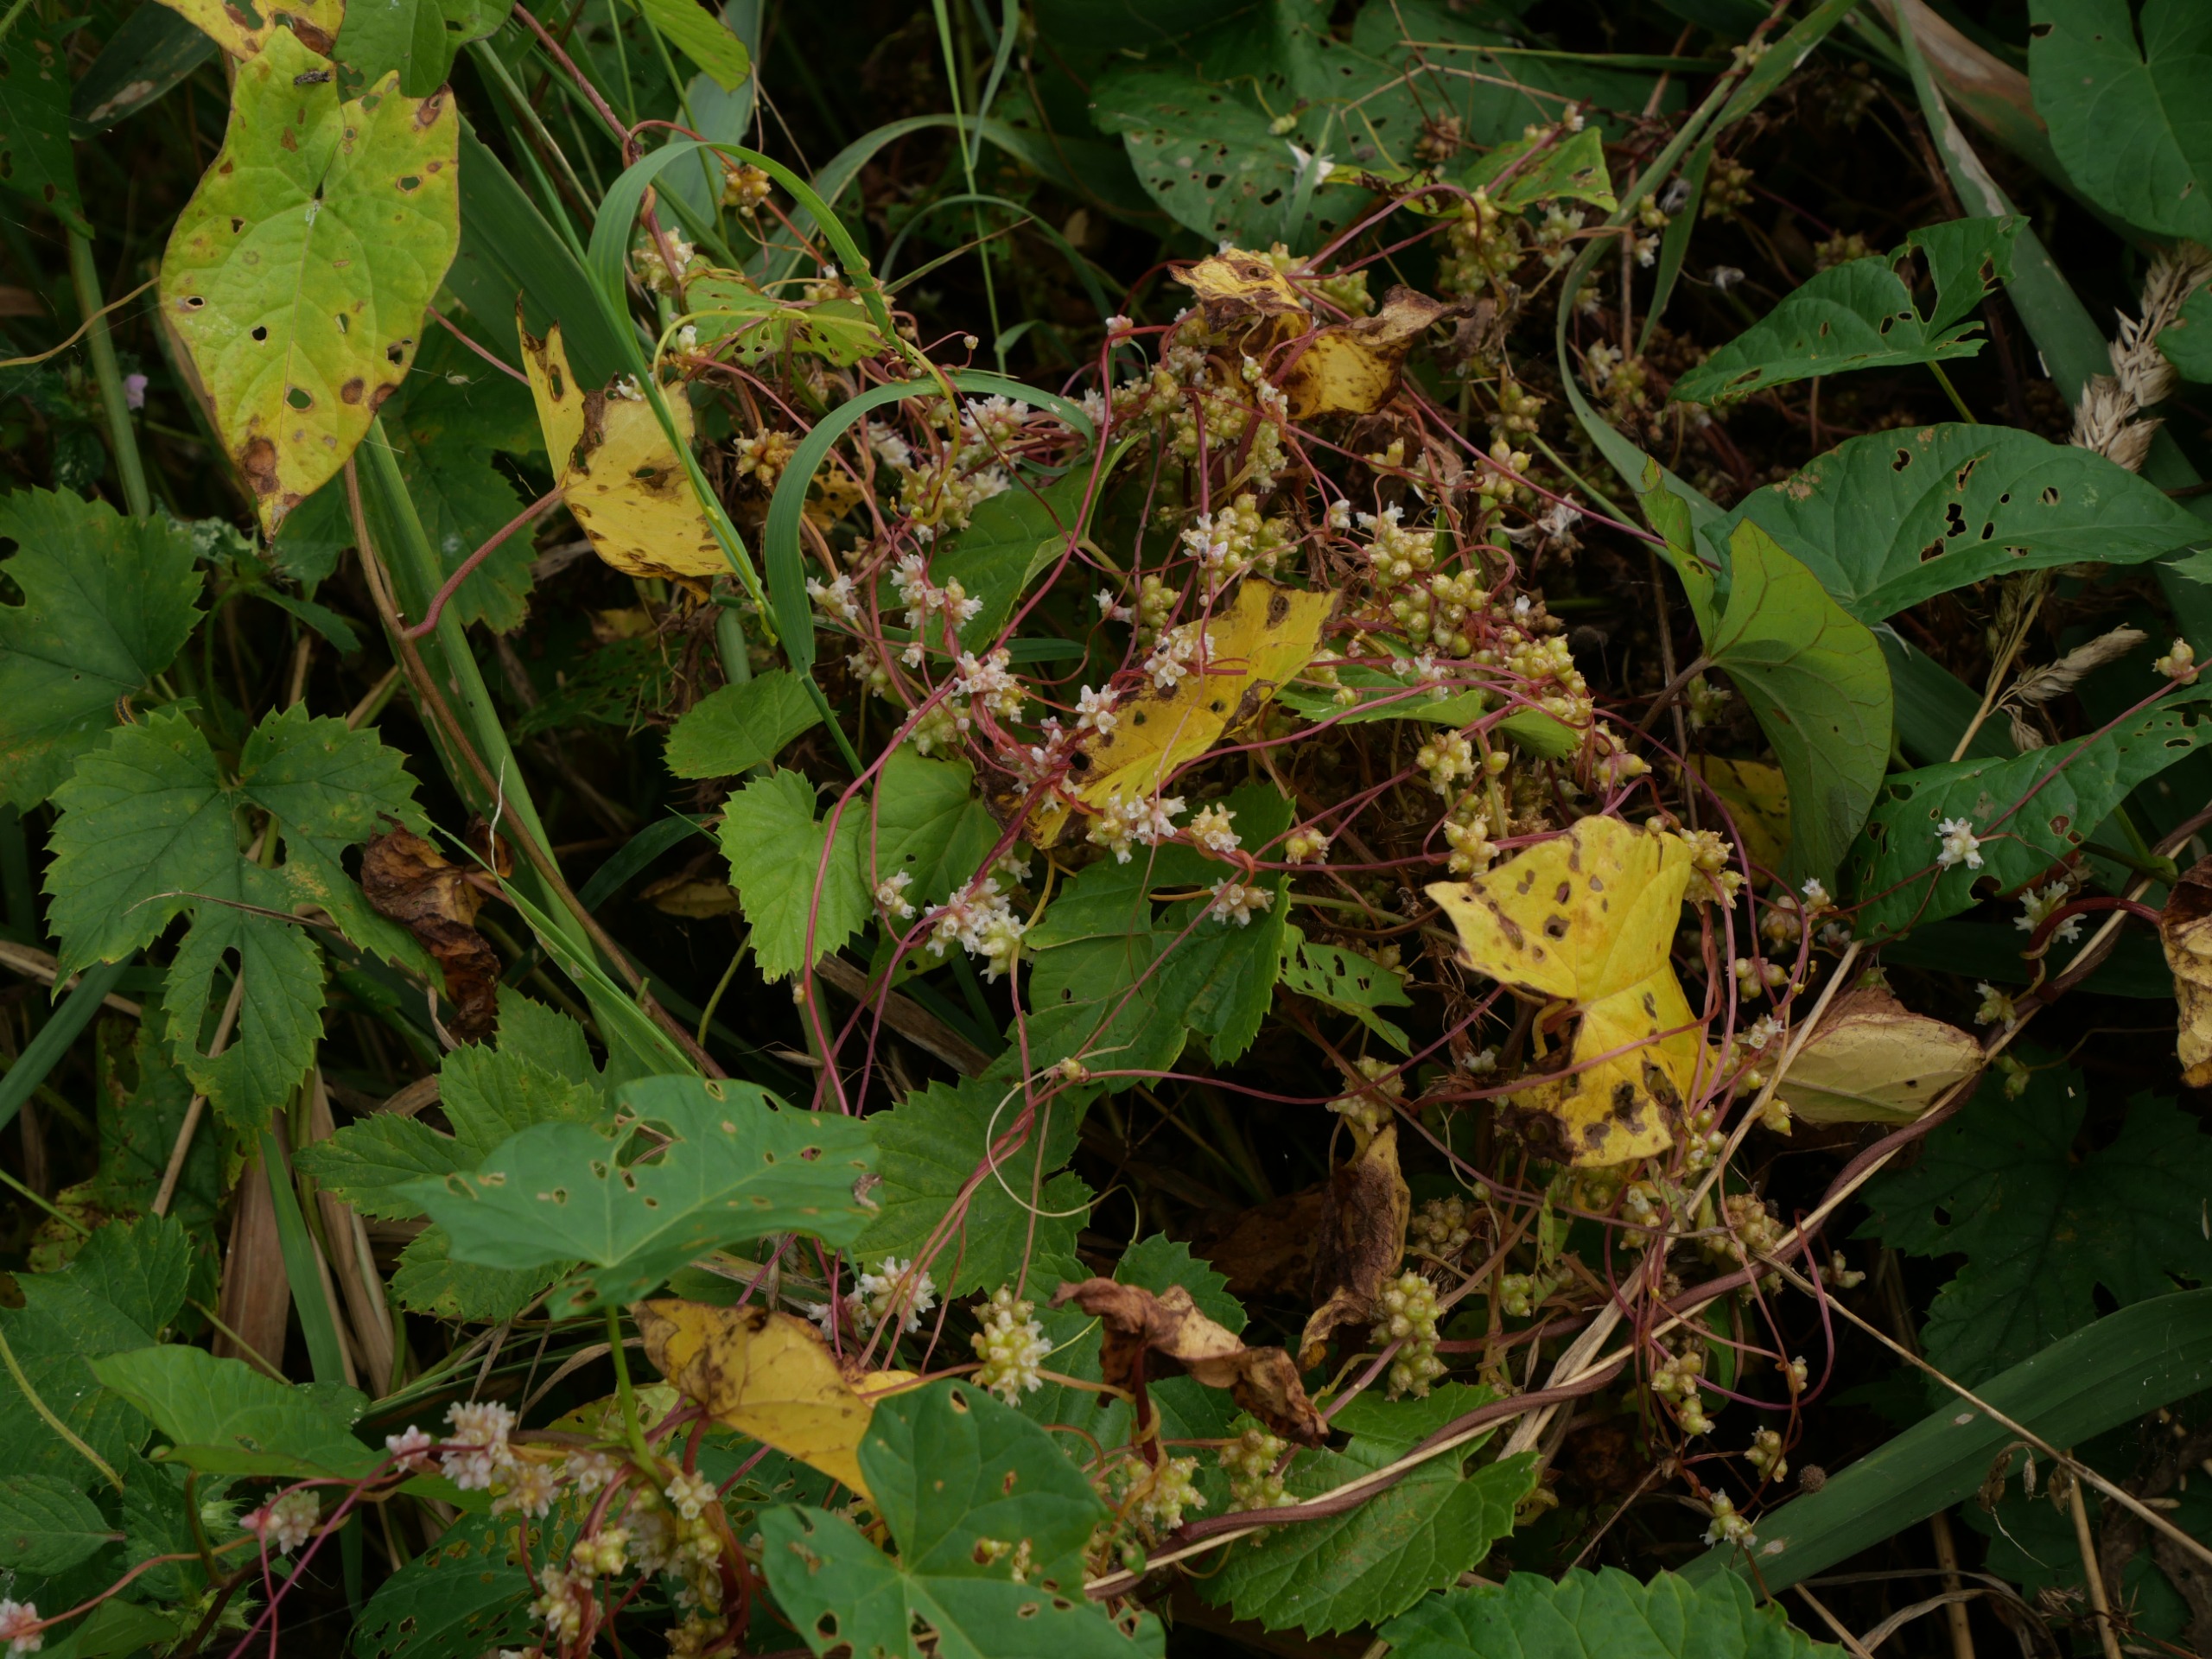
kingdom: Plantae
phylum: Tracheophyta
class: Magnoliopsida
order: Solanales
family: Convolvulaceae
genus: Cuscuta
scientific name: Cuscuta europaea
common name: Nælde-silke
